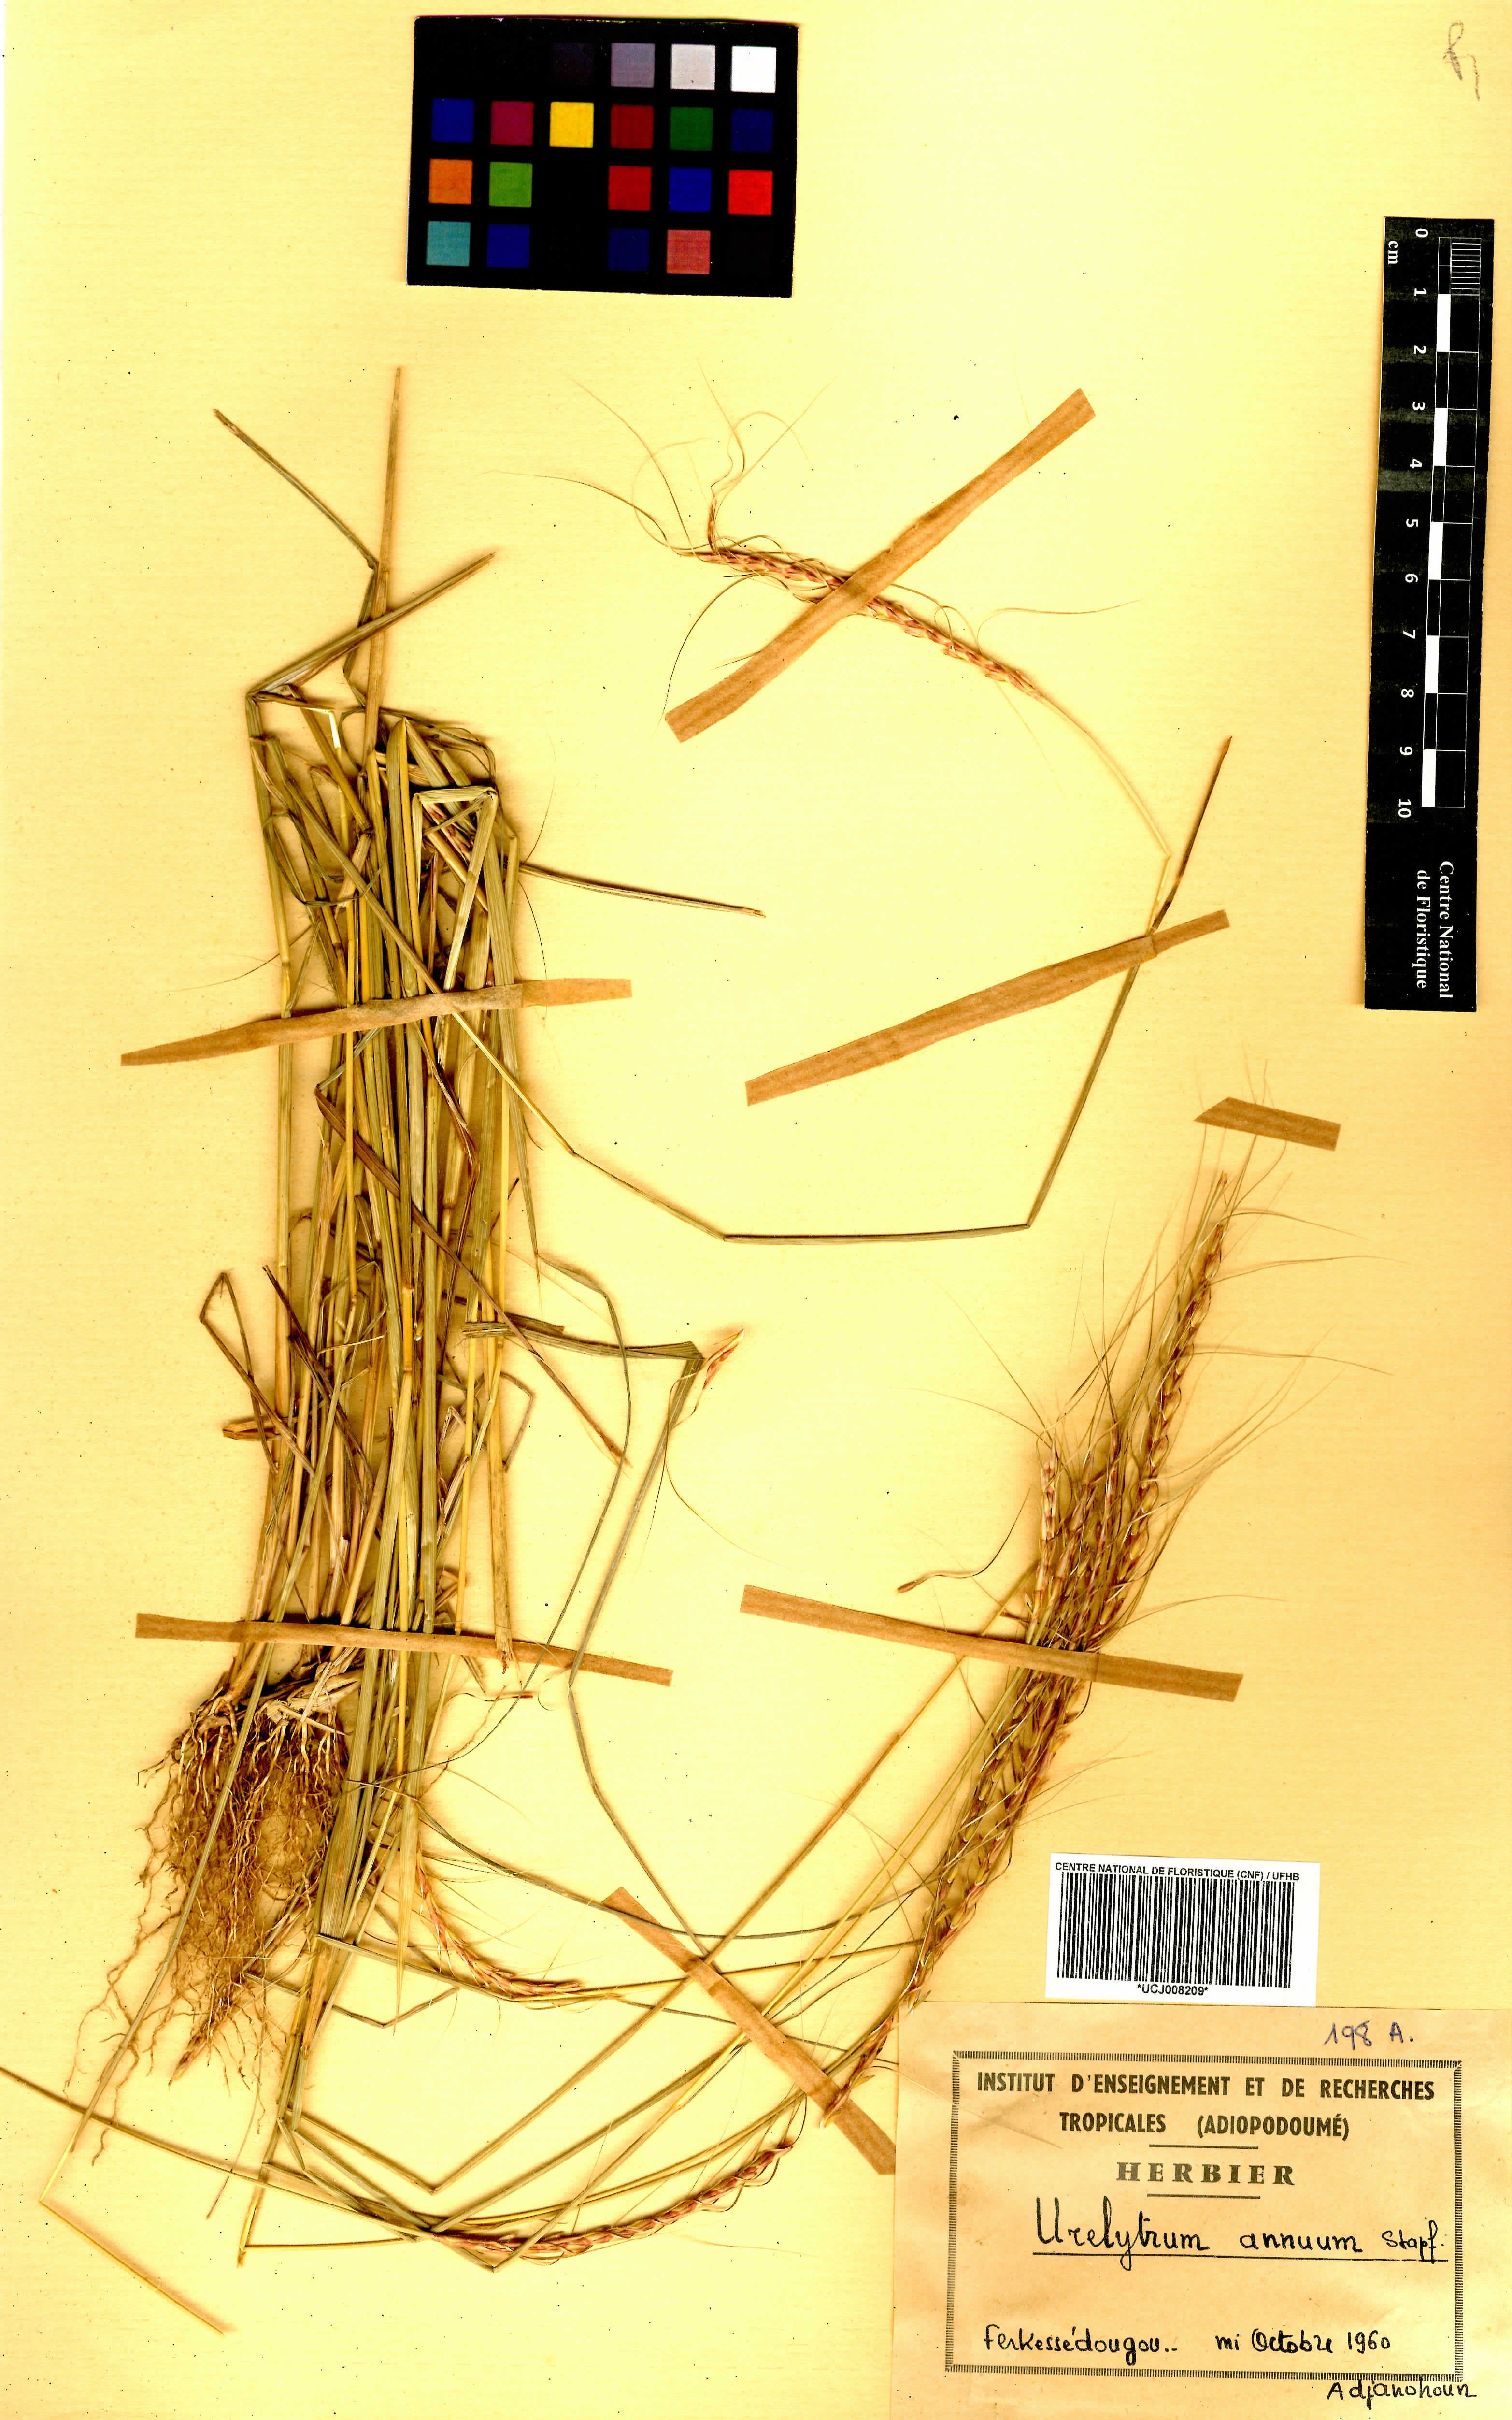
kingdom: Plantae
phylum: Tracheophyta
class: Liliopsida
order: Poales
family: Poaceae
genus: Urelytrum
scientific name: Urelytrum annuum
